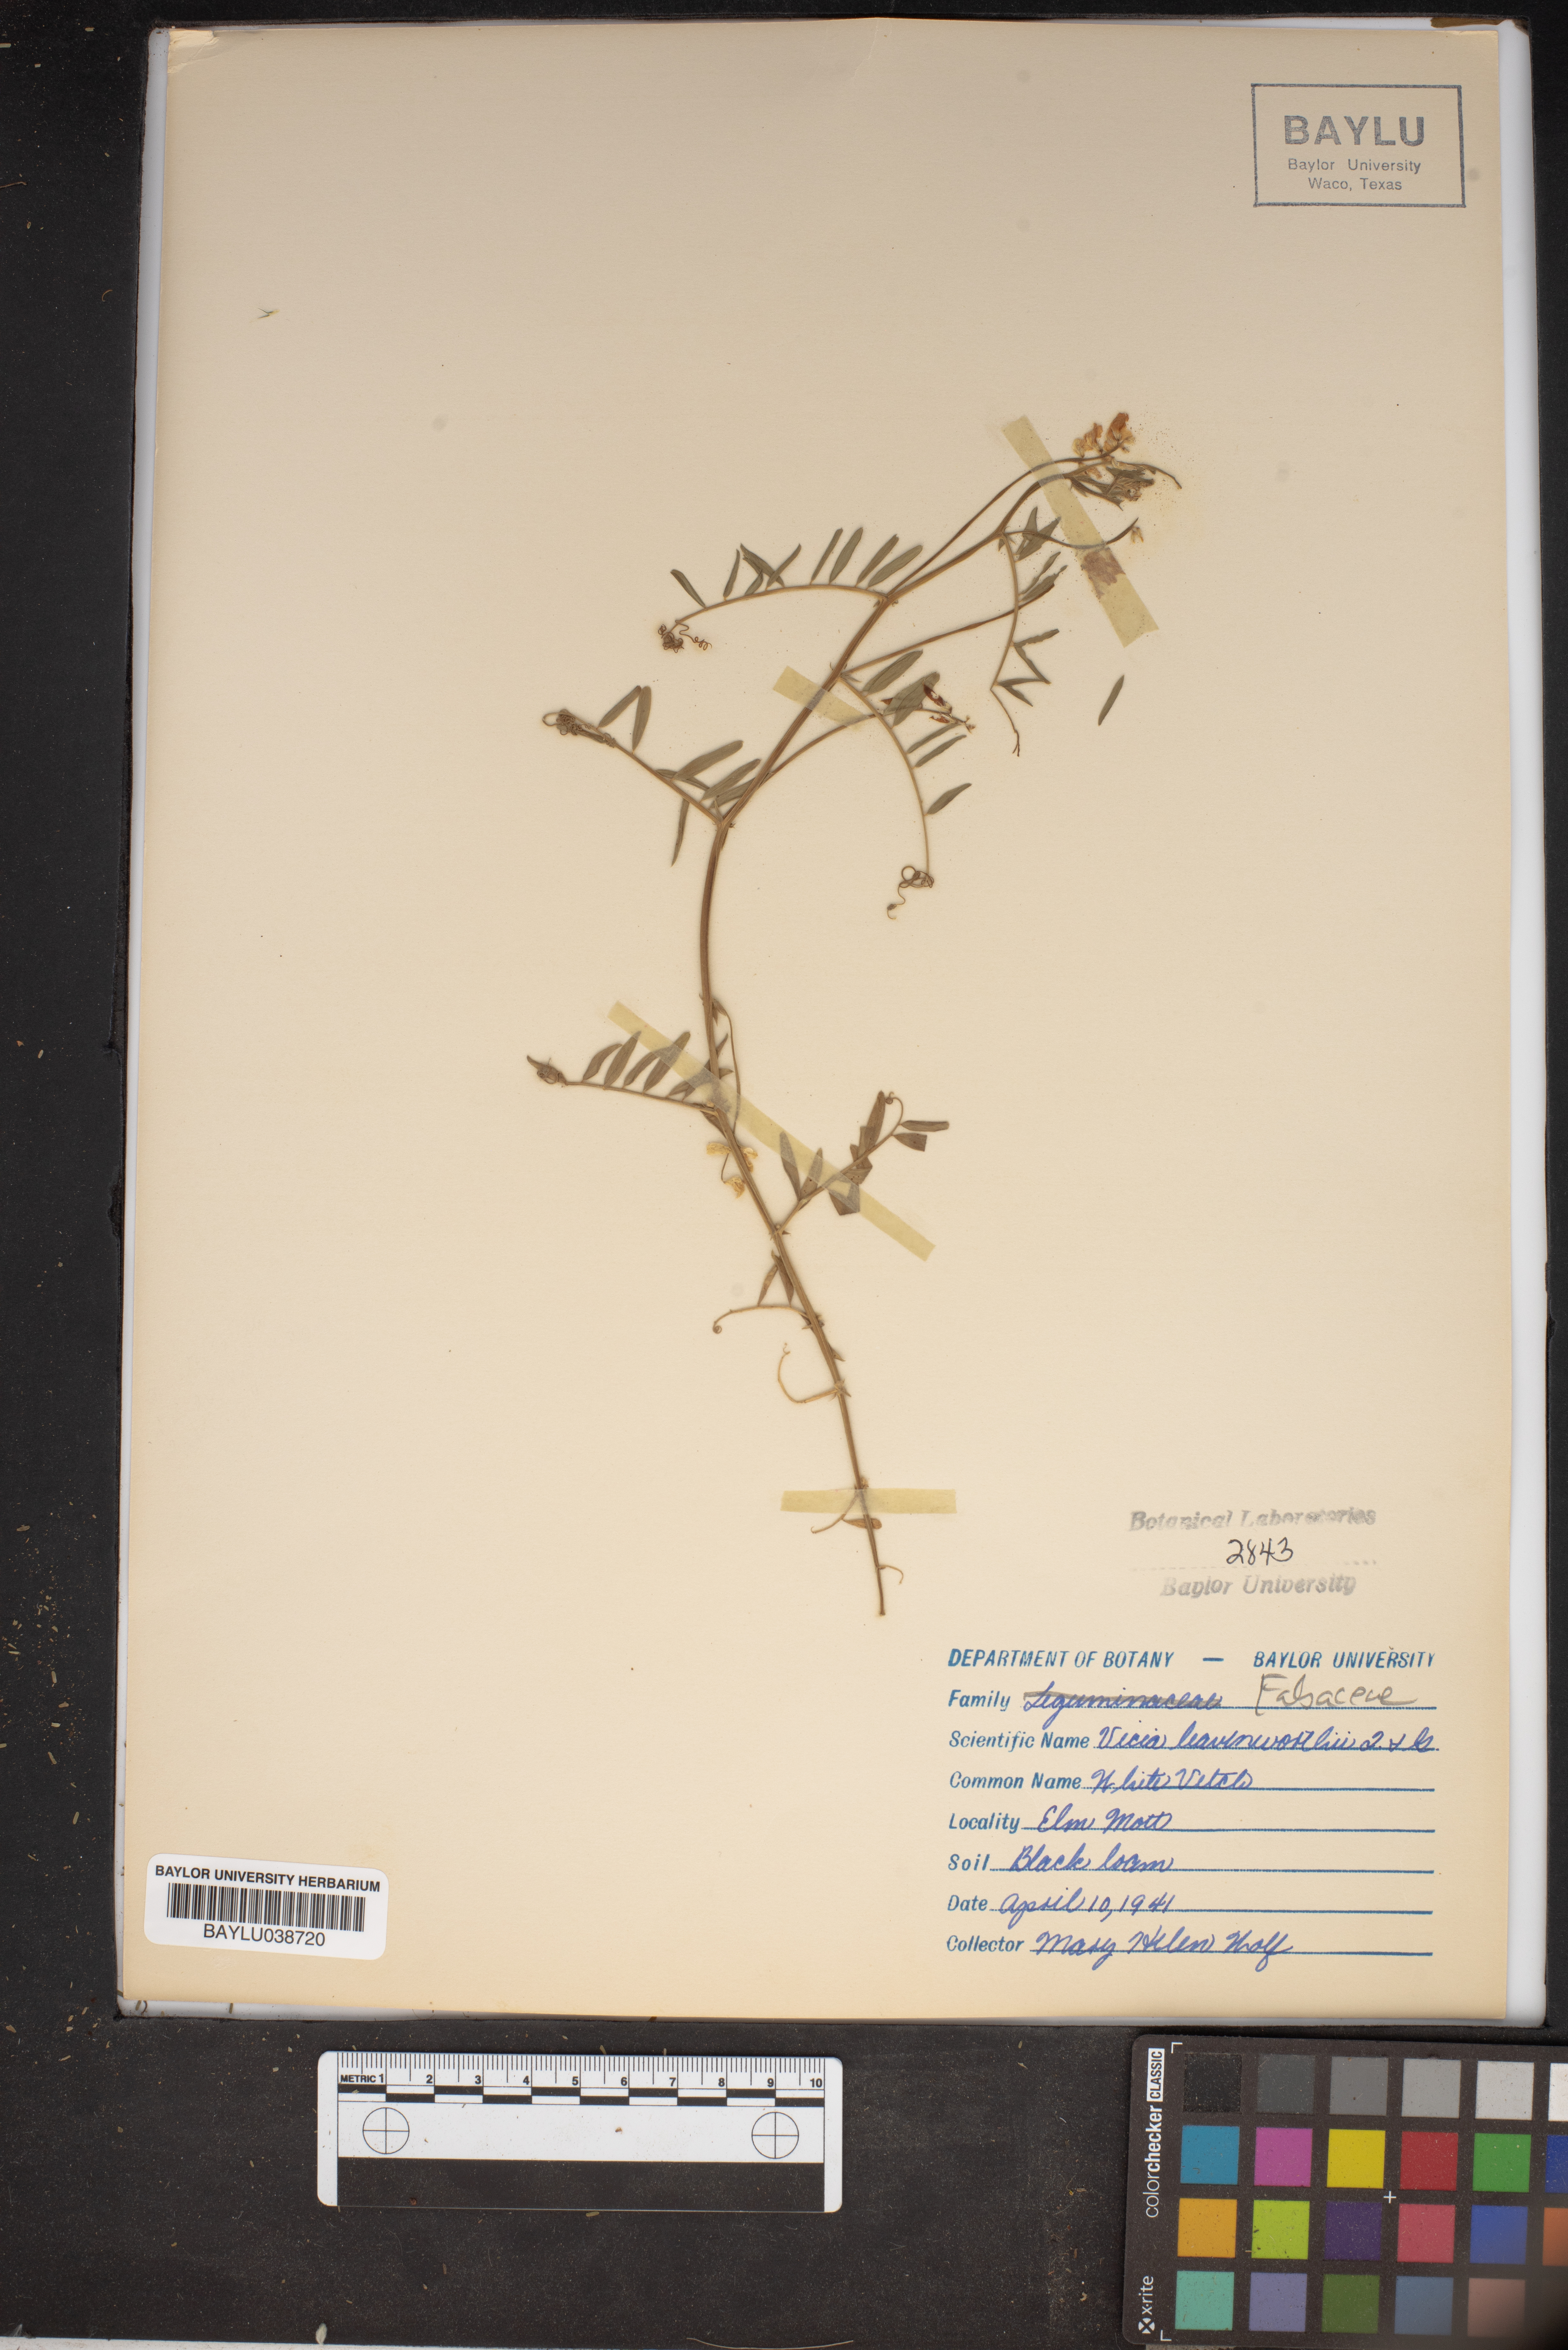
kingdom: Plantae
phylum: Tracheophyta
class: Magnoliopsida
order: Fabales
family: Fabaceae
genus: Vicia
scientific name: Vicia ludoviciana
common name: Louisiana vetch
